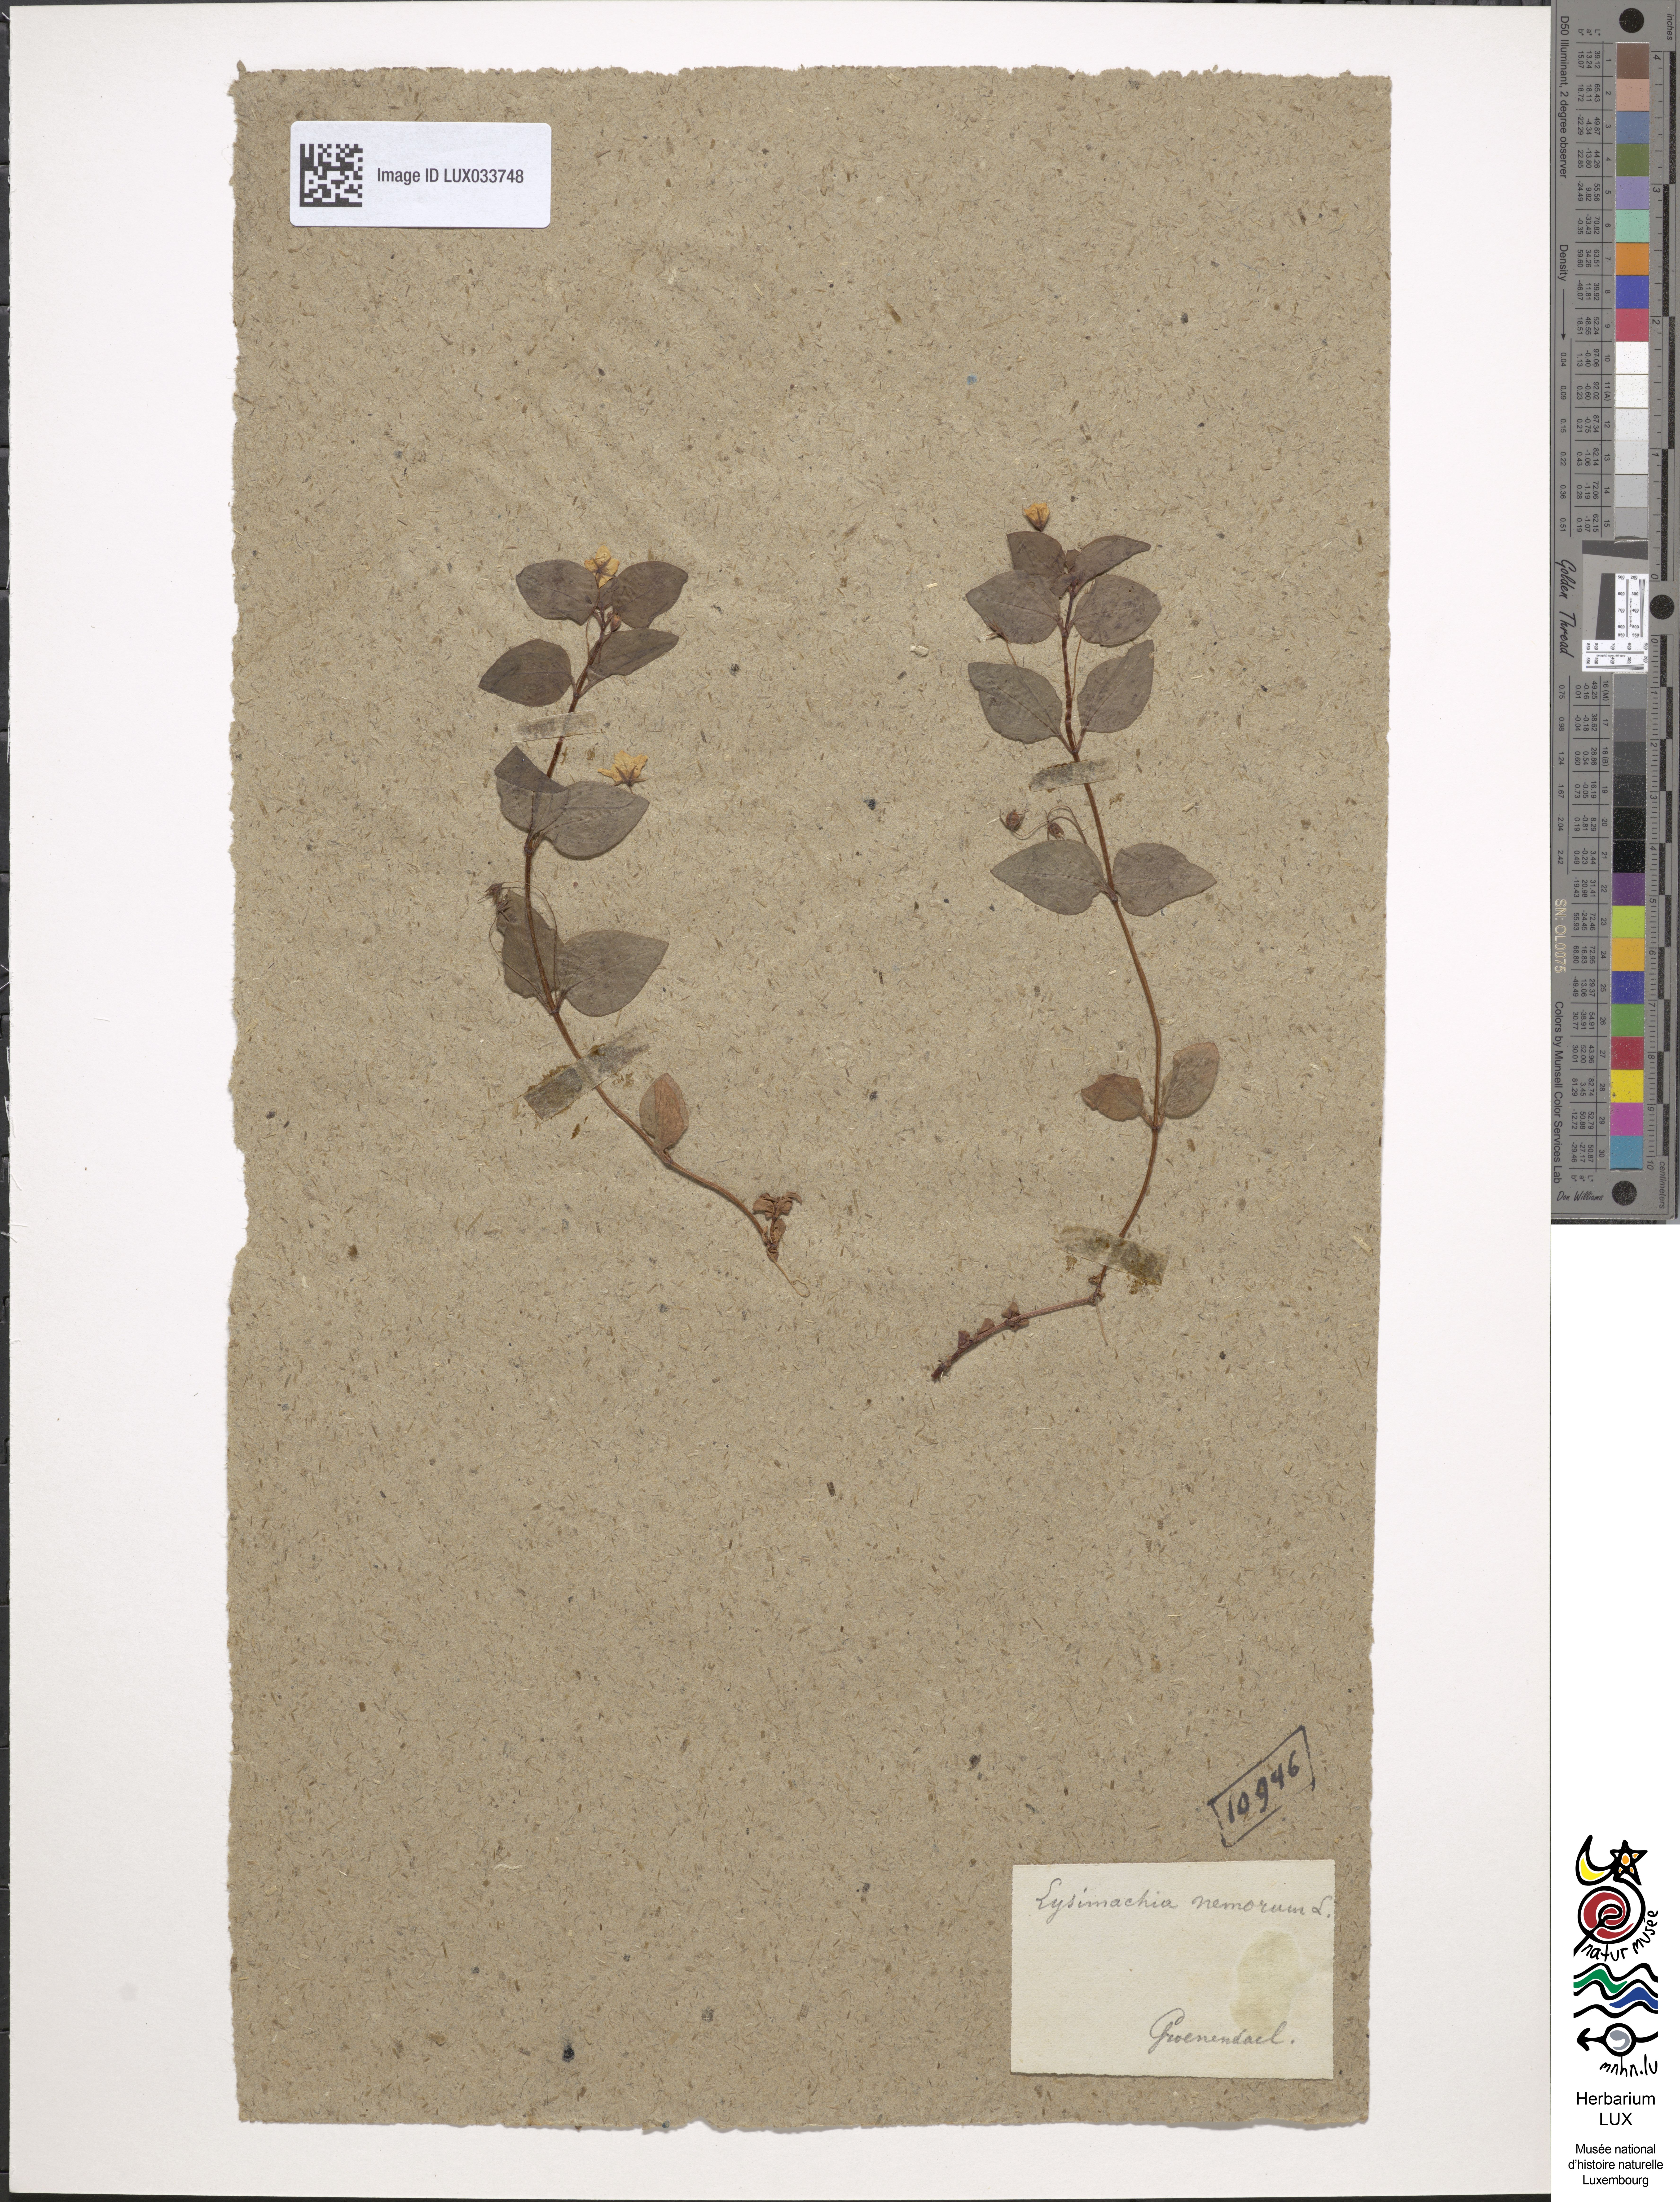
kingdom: Plantae
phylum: Tracheophyta
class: Magnoliopsida
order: Ericales
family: Primulaceae
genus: Lysimachia
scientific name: Lysimachia nemorum
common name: Yellow pimpernel
